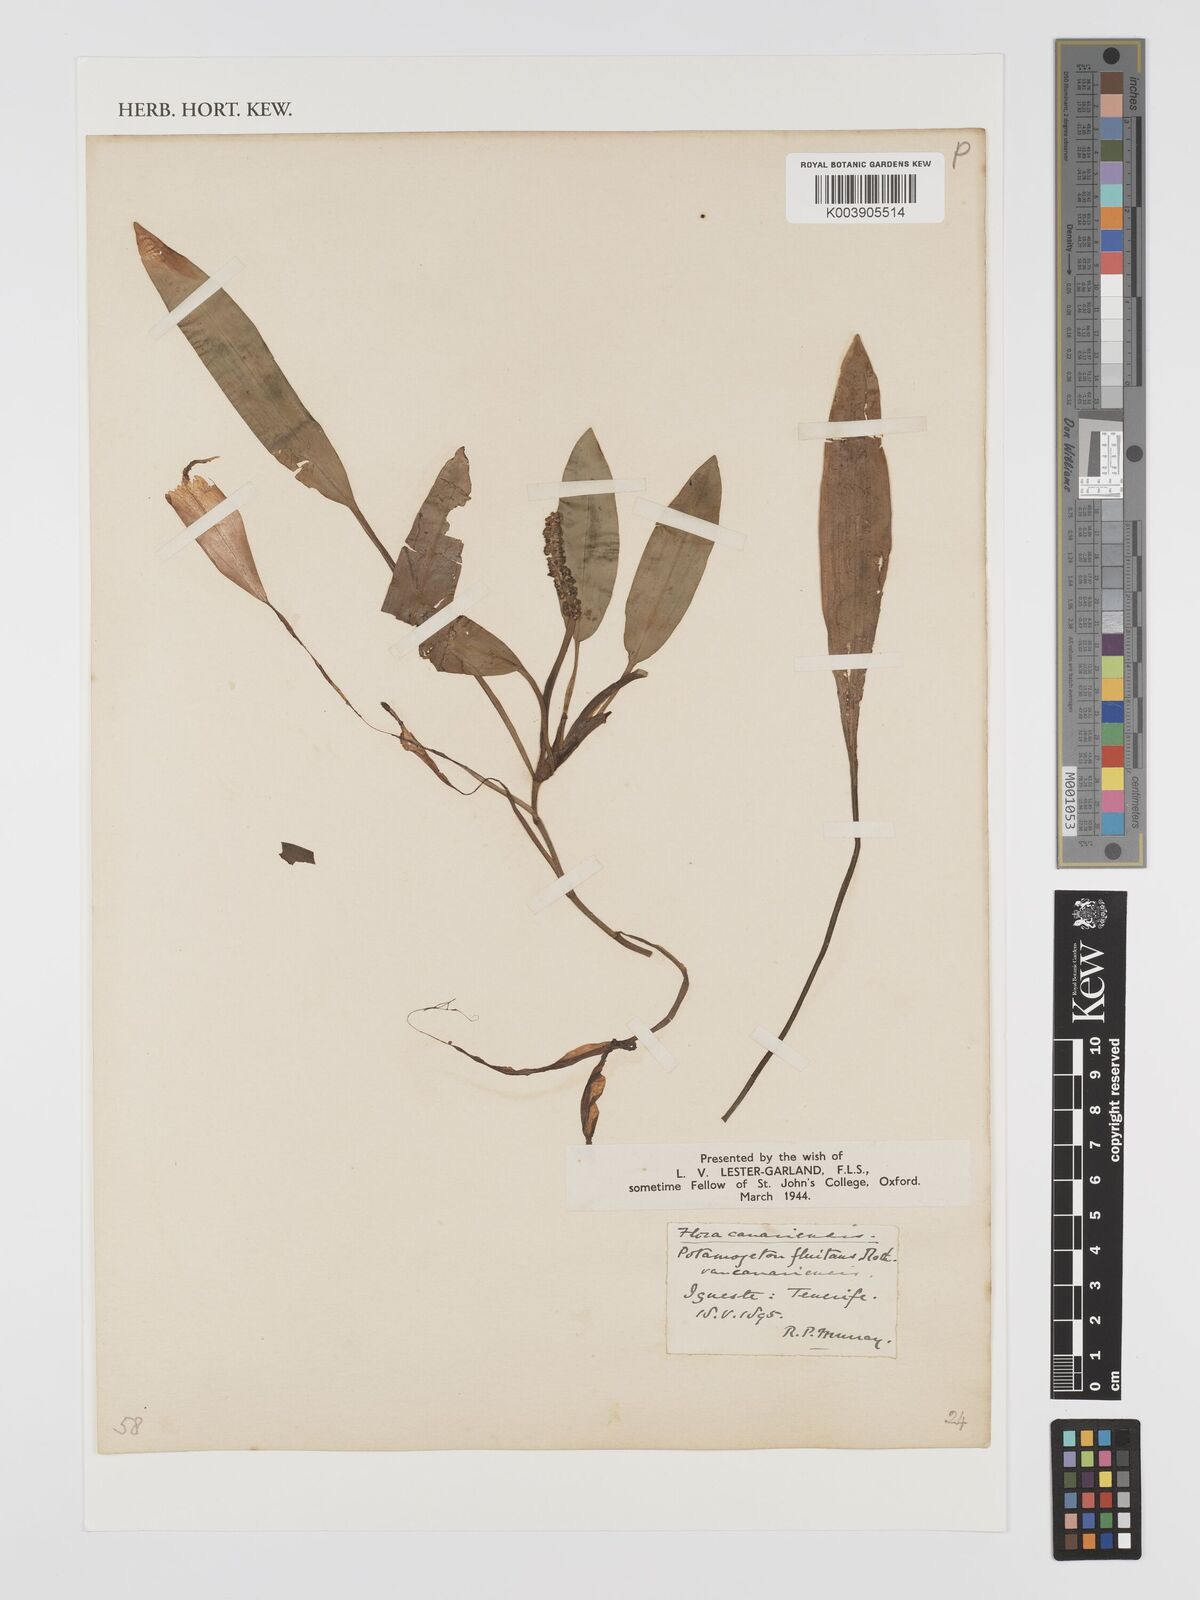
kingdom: Plantae
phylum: Tracheophyta
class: Liliopsida
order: Alismatales
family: Potamogetonaceae
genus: Potamogeton
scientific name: Potamogeton nodosus
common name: Loddon pondweed
